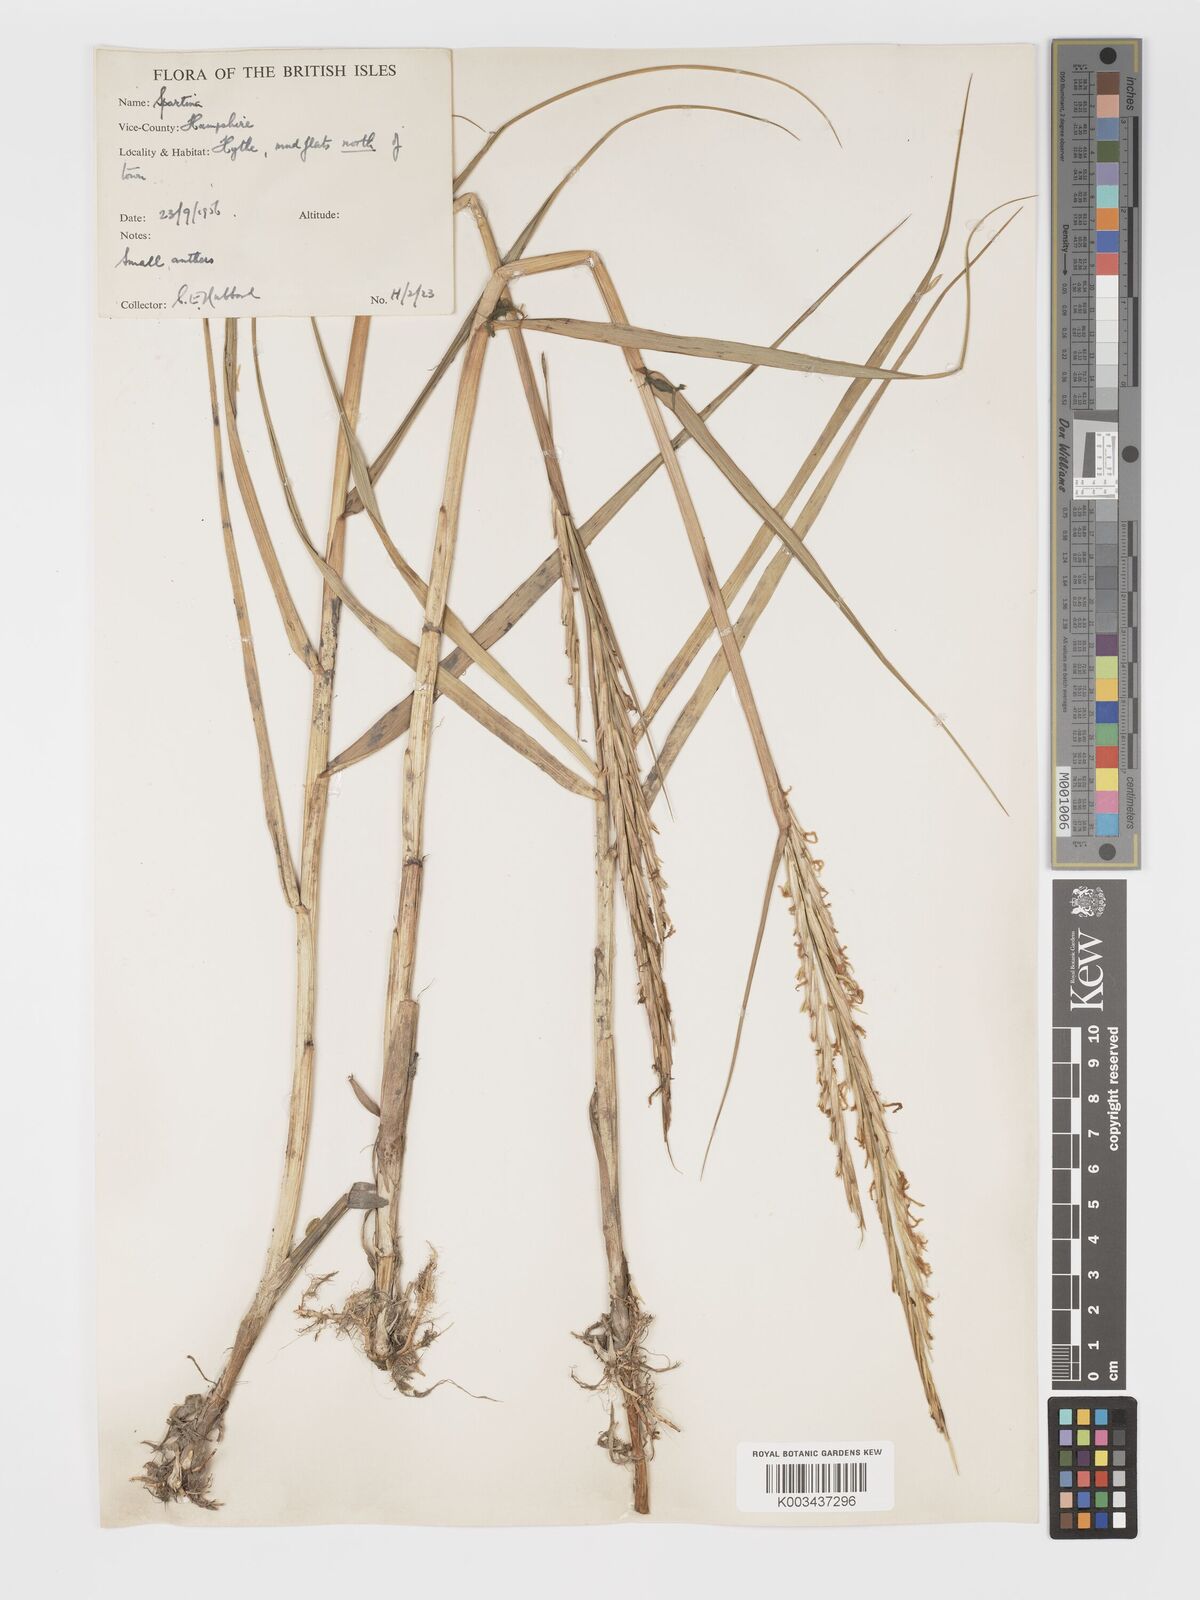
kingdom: Plantae
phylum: Tracheophyta
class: Liliopsida
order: Poales
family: Poaceae
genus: Sporobolus
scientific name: Sporobolus townsendii
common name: Townsend's cordgrass
